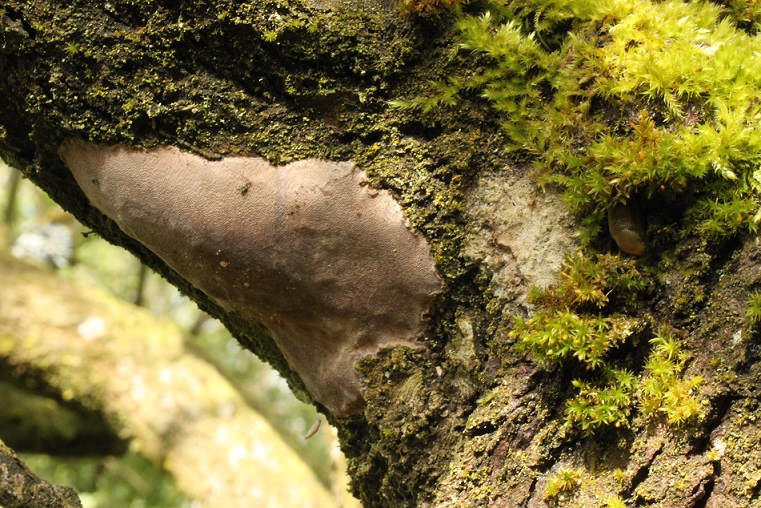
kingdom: Fungi
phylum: Basidiomycota
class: Agaricomycetes
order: Hymenochaetales
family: Hymenochaetaceae
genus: Fomitiporia
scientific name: Fomitiporia punctata
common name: pude-ildporesvamp
